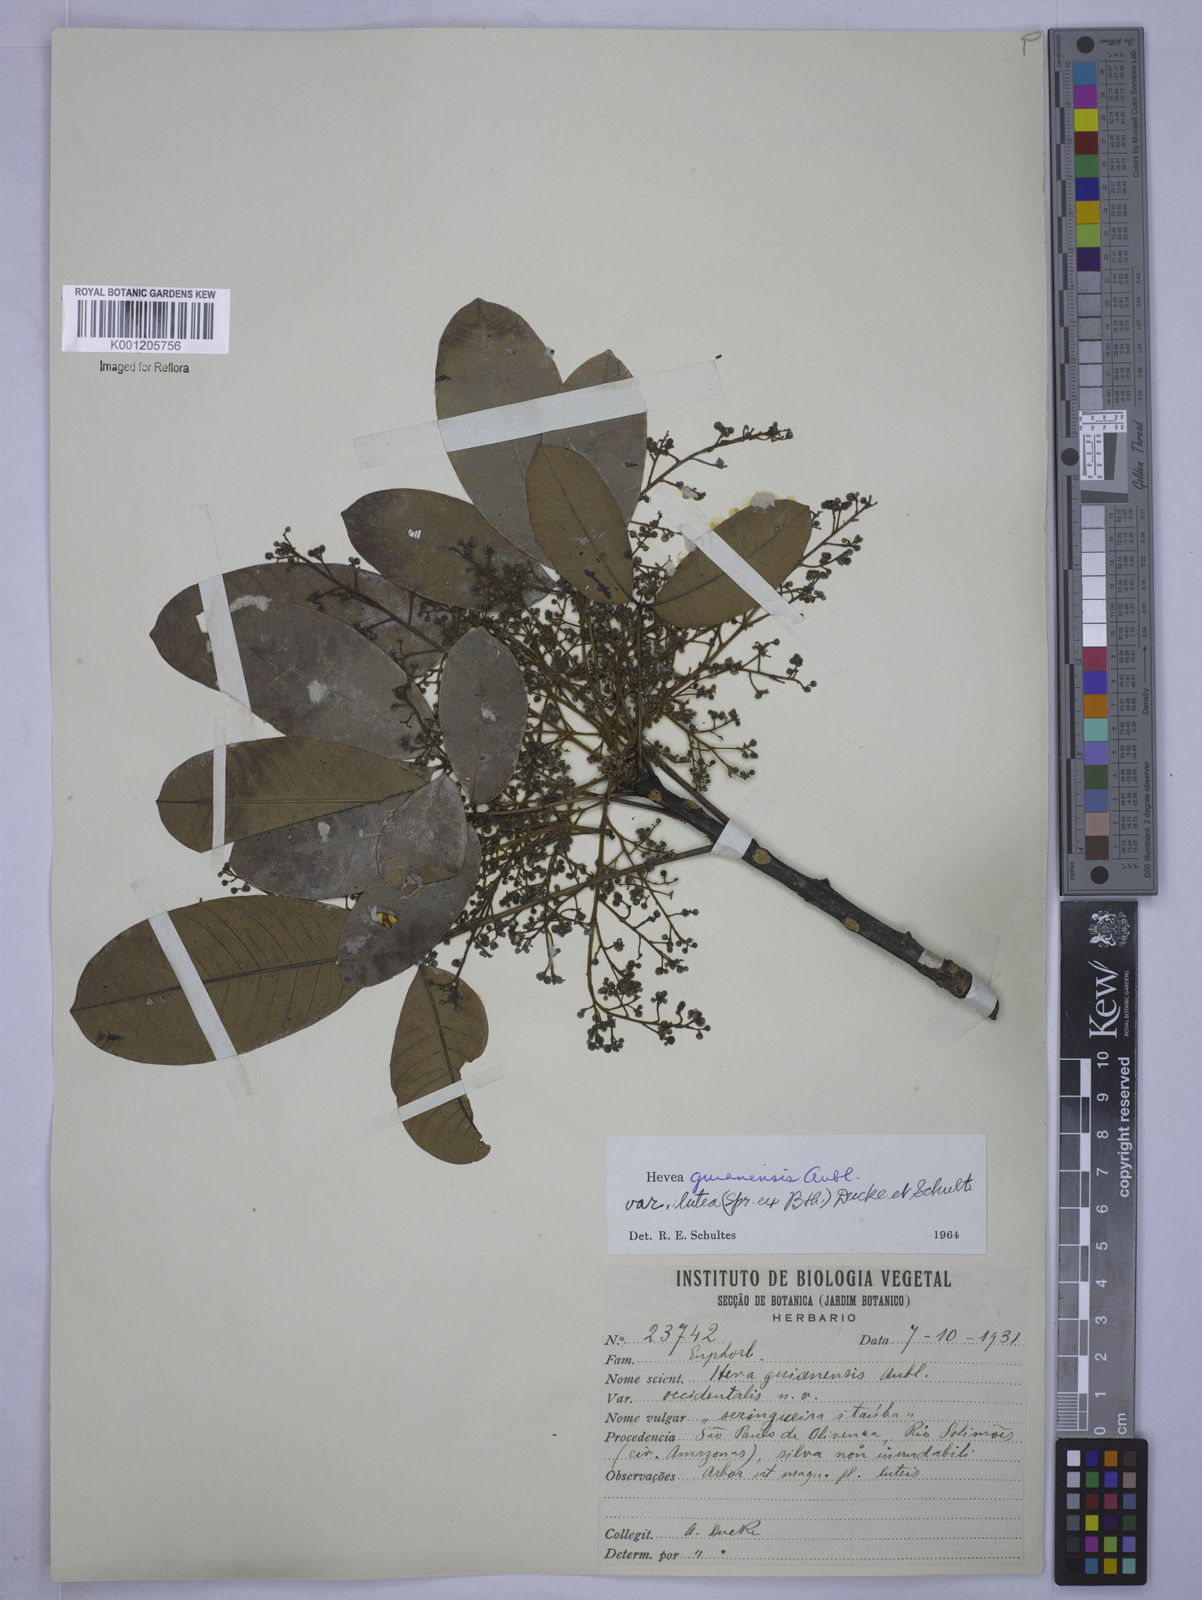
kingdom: Plantae
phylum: Tracheophyta
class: Magnoliopsida
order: Malpighiales
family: Euphorbiaceae
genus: Hevea
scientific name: Hevea guianensis
